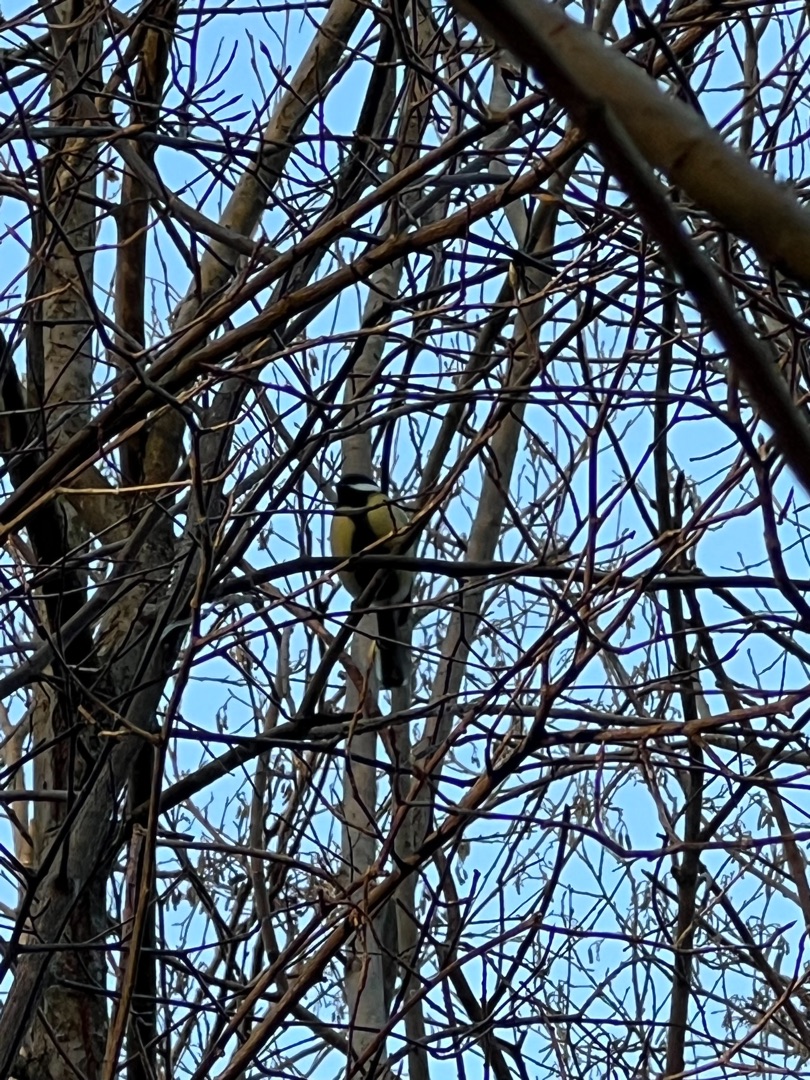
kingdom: Animalia
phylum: Chordata
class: Aves
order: Passeriformes
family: Paridae
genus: Parus
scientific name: Parus major
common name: Musvit
